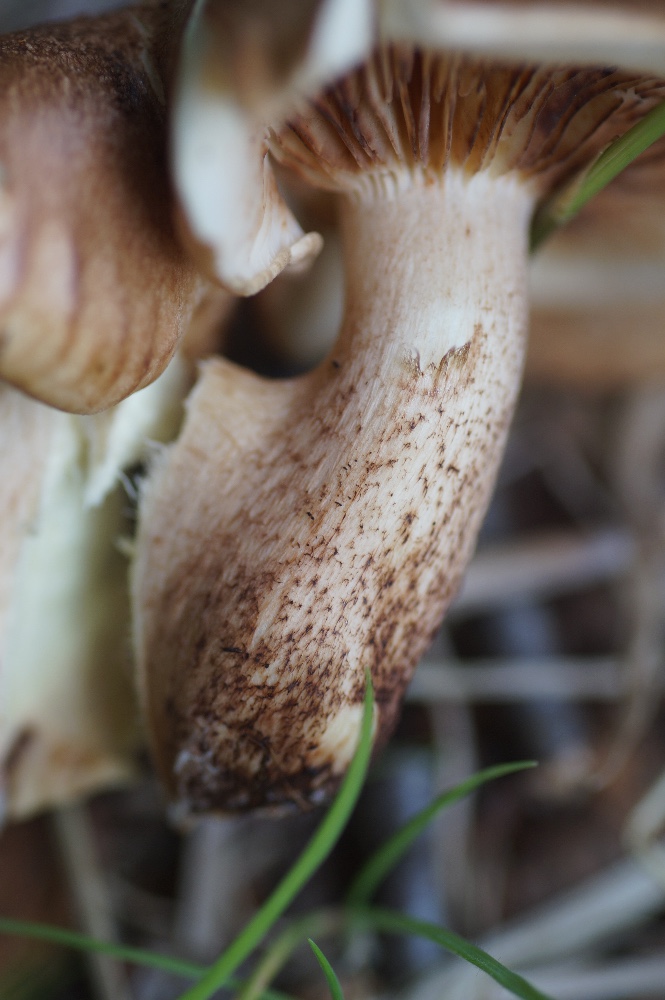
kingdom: Fungi
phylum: Basidiomycota
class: Agaricomycetes
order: Agaricales
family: Tricholomataceae
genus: Tricholoma
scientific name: Tricholoma populinum
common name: poppel-ridderhat
